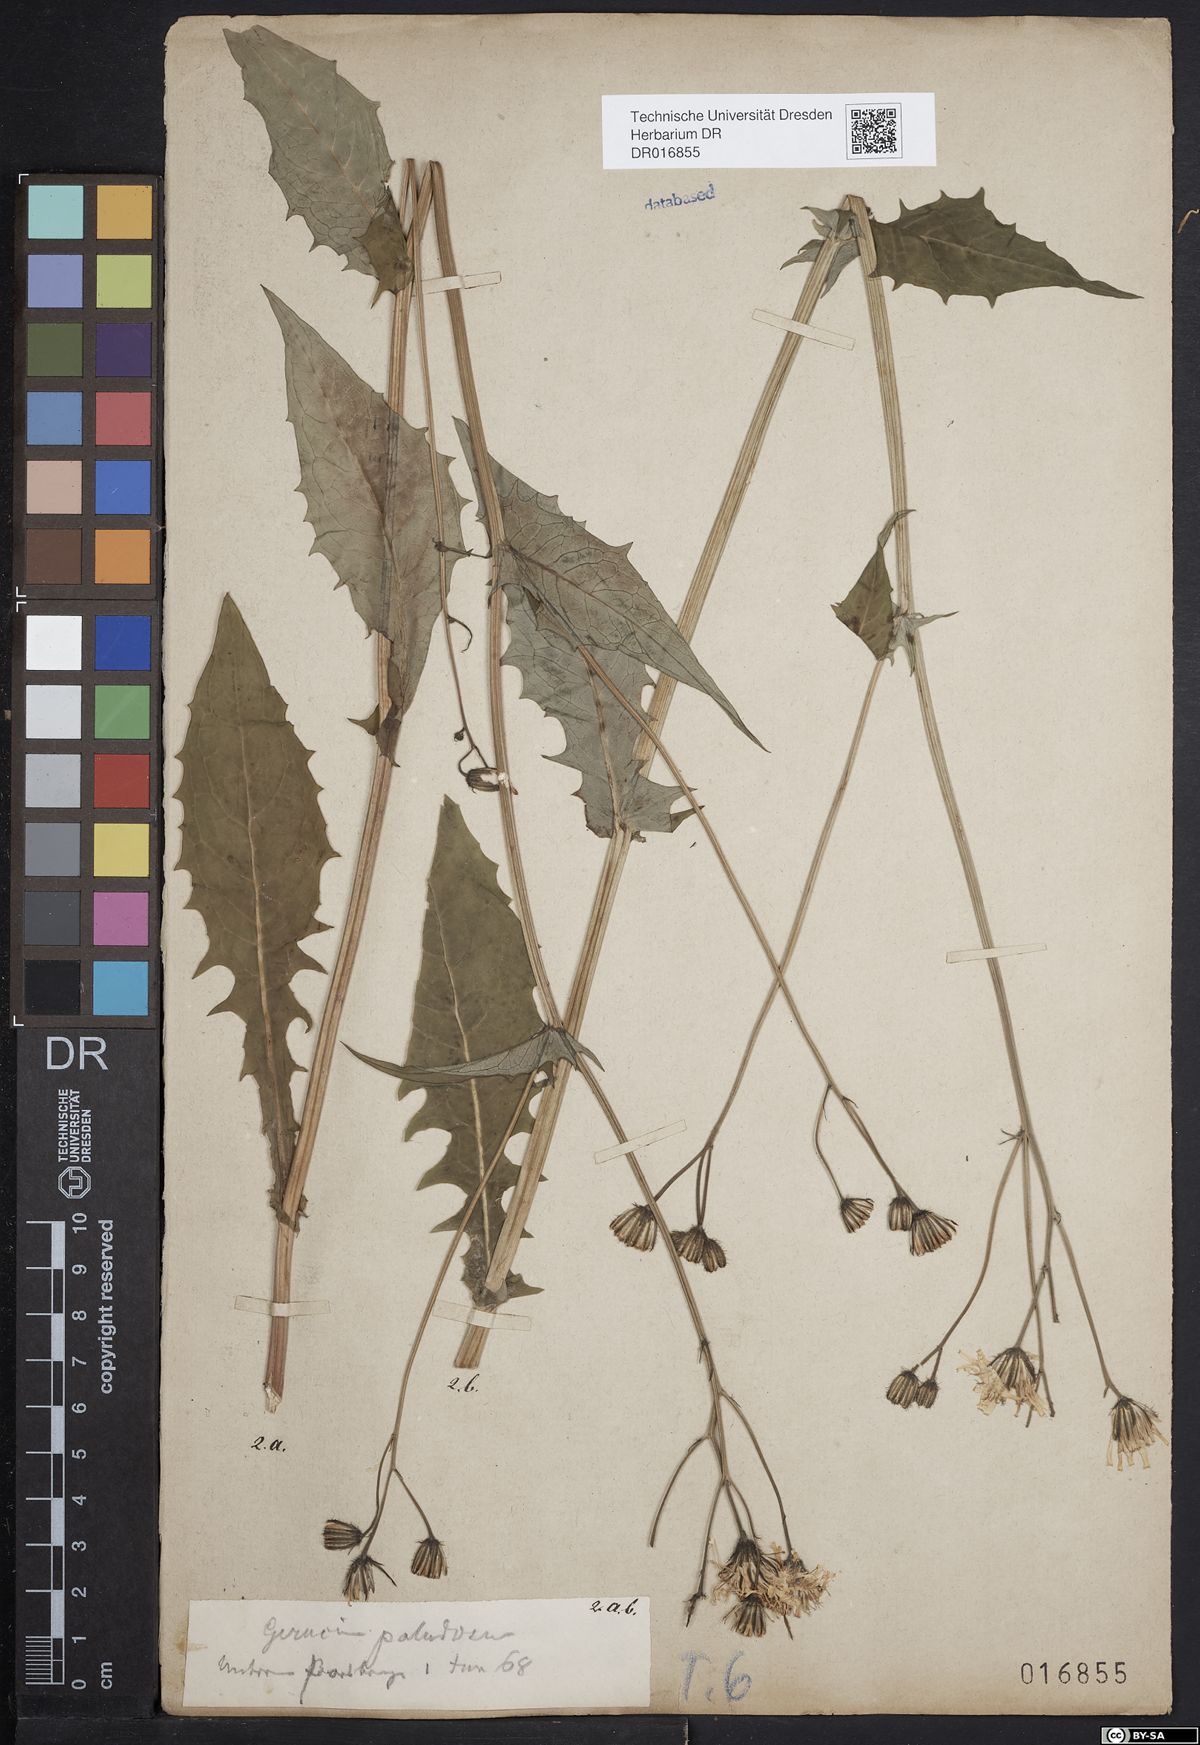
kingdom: Plantae
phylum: Tracheophyta
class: Magnoliopsida
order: Asterales
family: Asteraceae
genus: Crepis
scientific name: Crepis paludosa
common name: Marsh hawk's-beard
